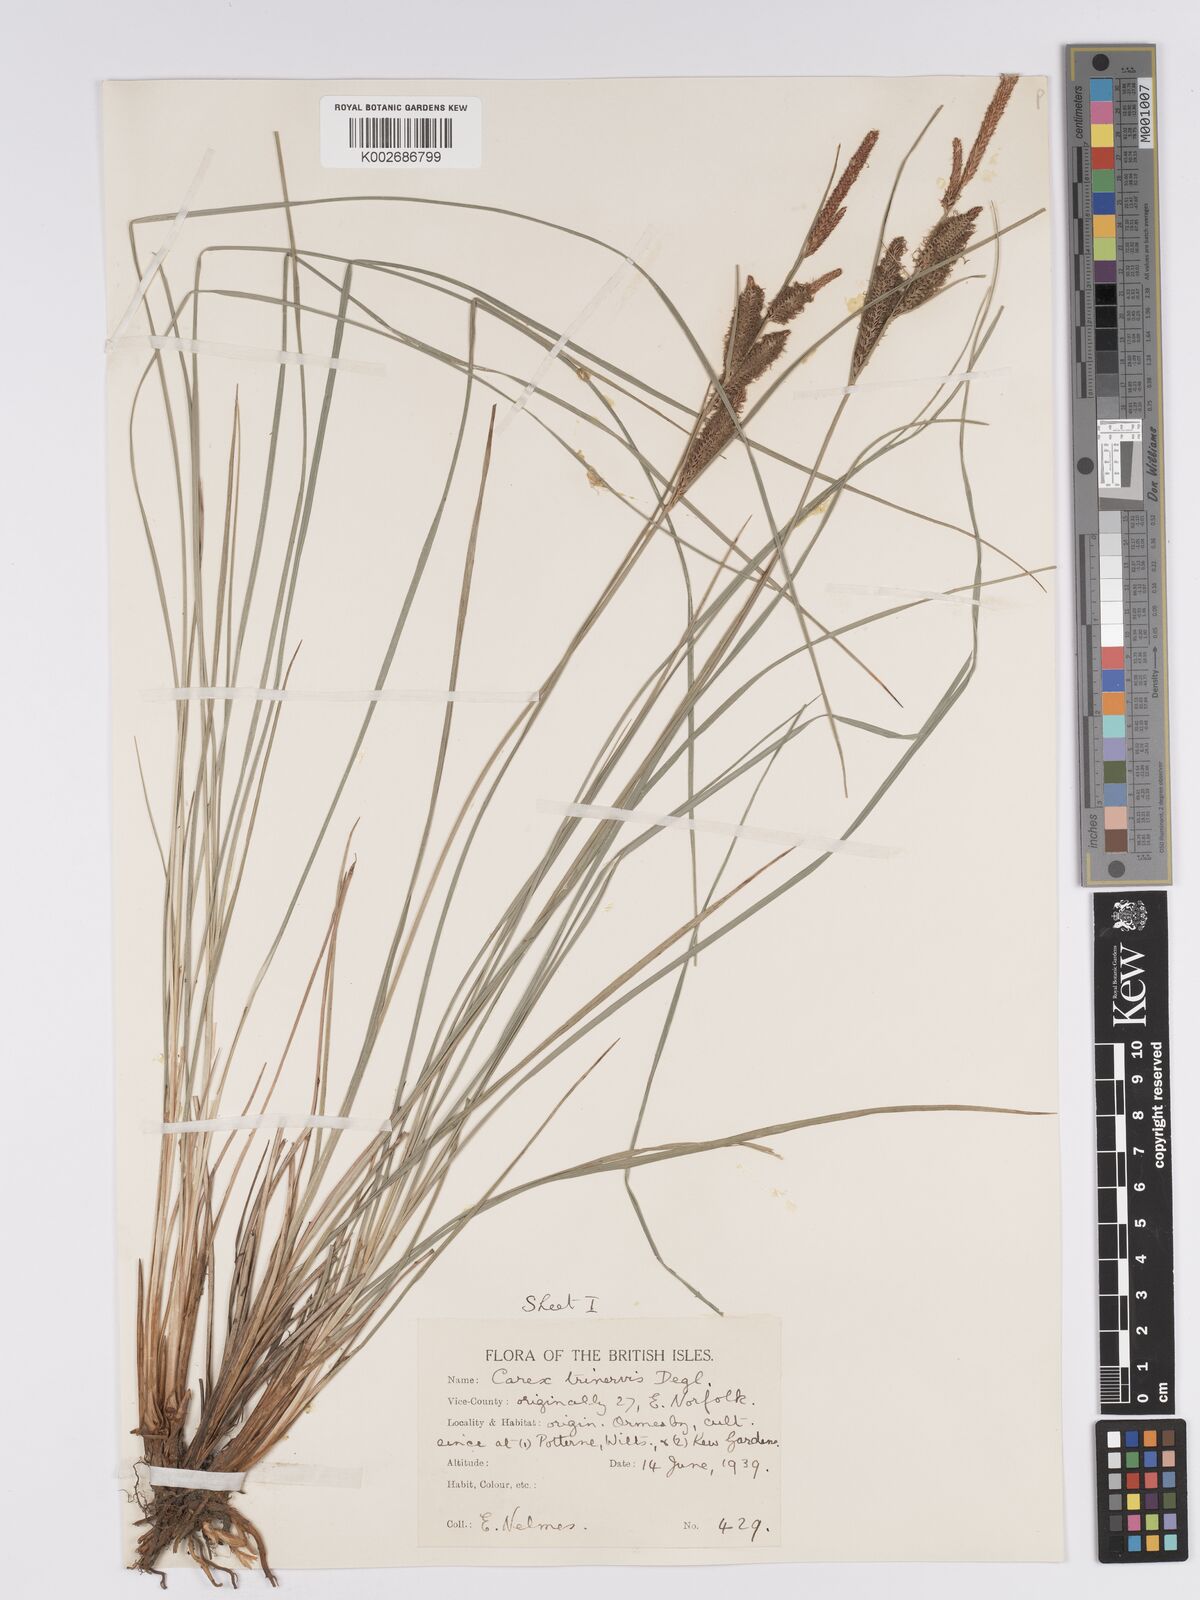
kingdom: Plantae
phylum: Tracheophyta
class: Liliopsida
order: Poales
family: Cyperaceae
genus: Carex
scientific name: Carex trinervis
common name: Three-nerved sedge
